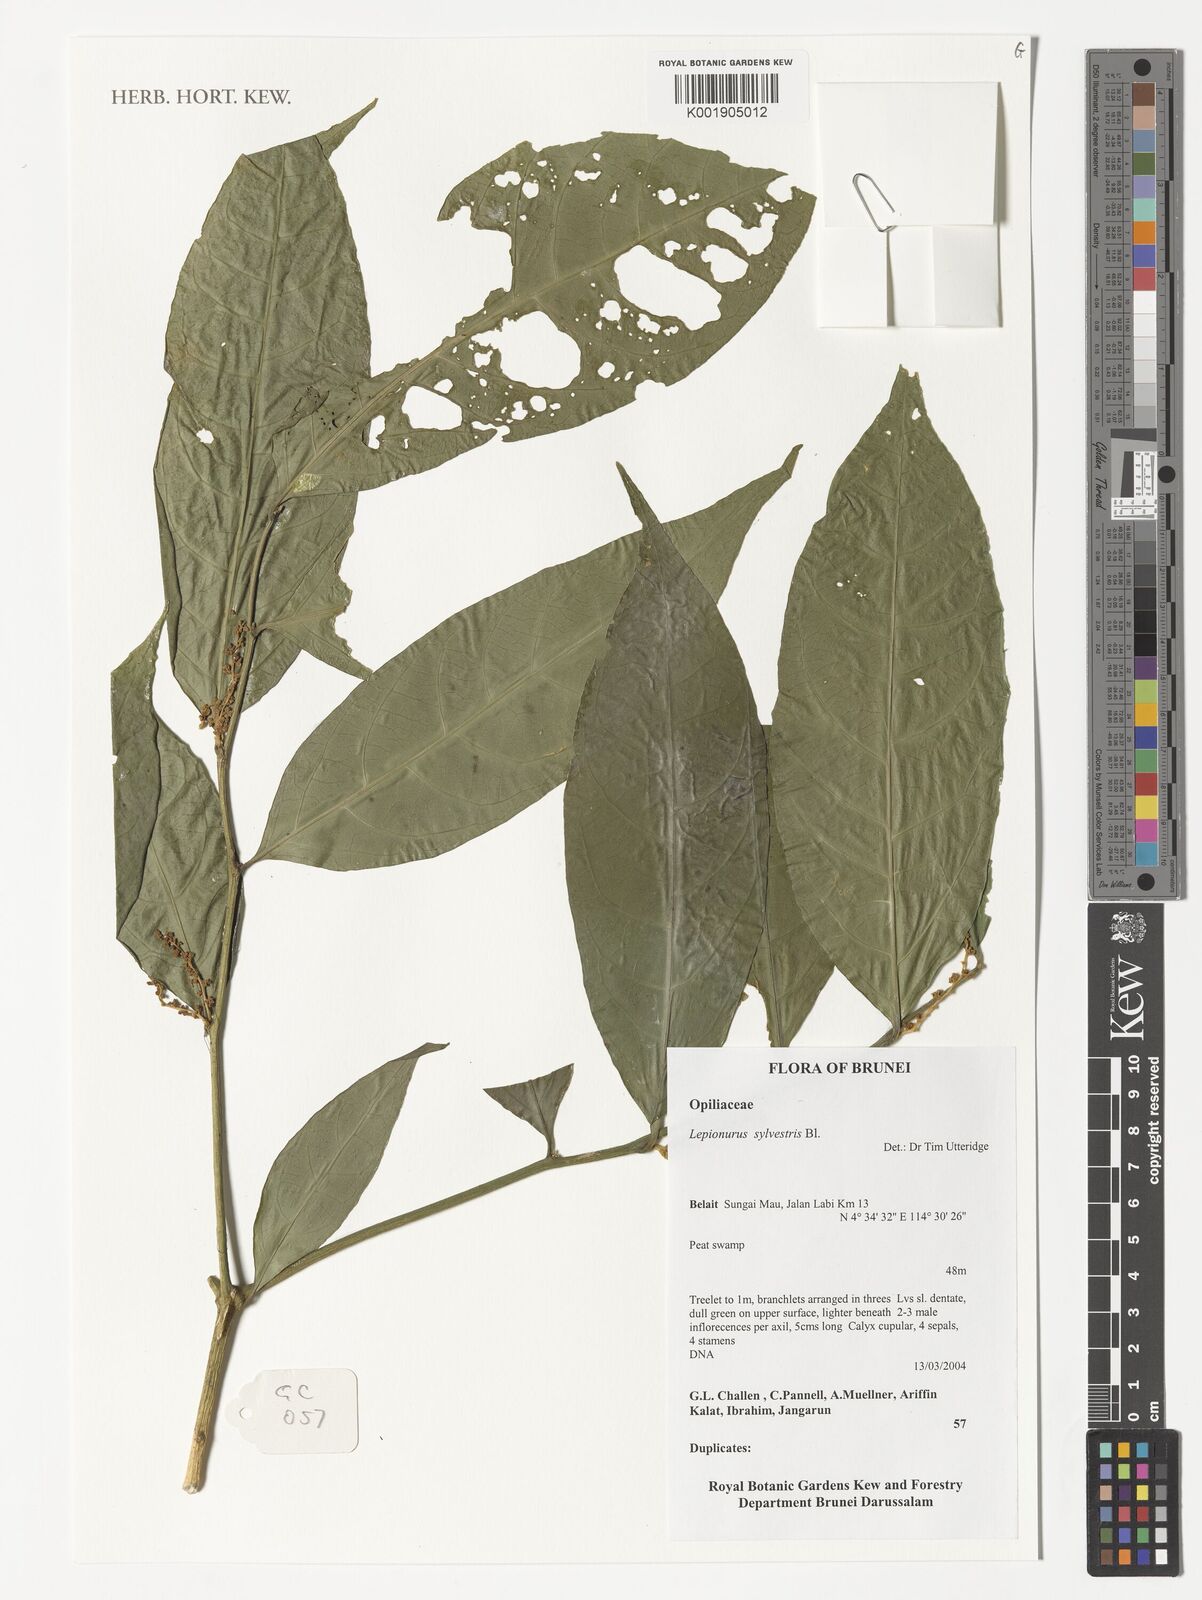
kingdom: Plantae
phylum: Tracheophyta
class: Magnoliopsida
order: Santalales
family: Opiliaceae
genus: Lepionurus
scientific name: Lepionurus sylvestris
